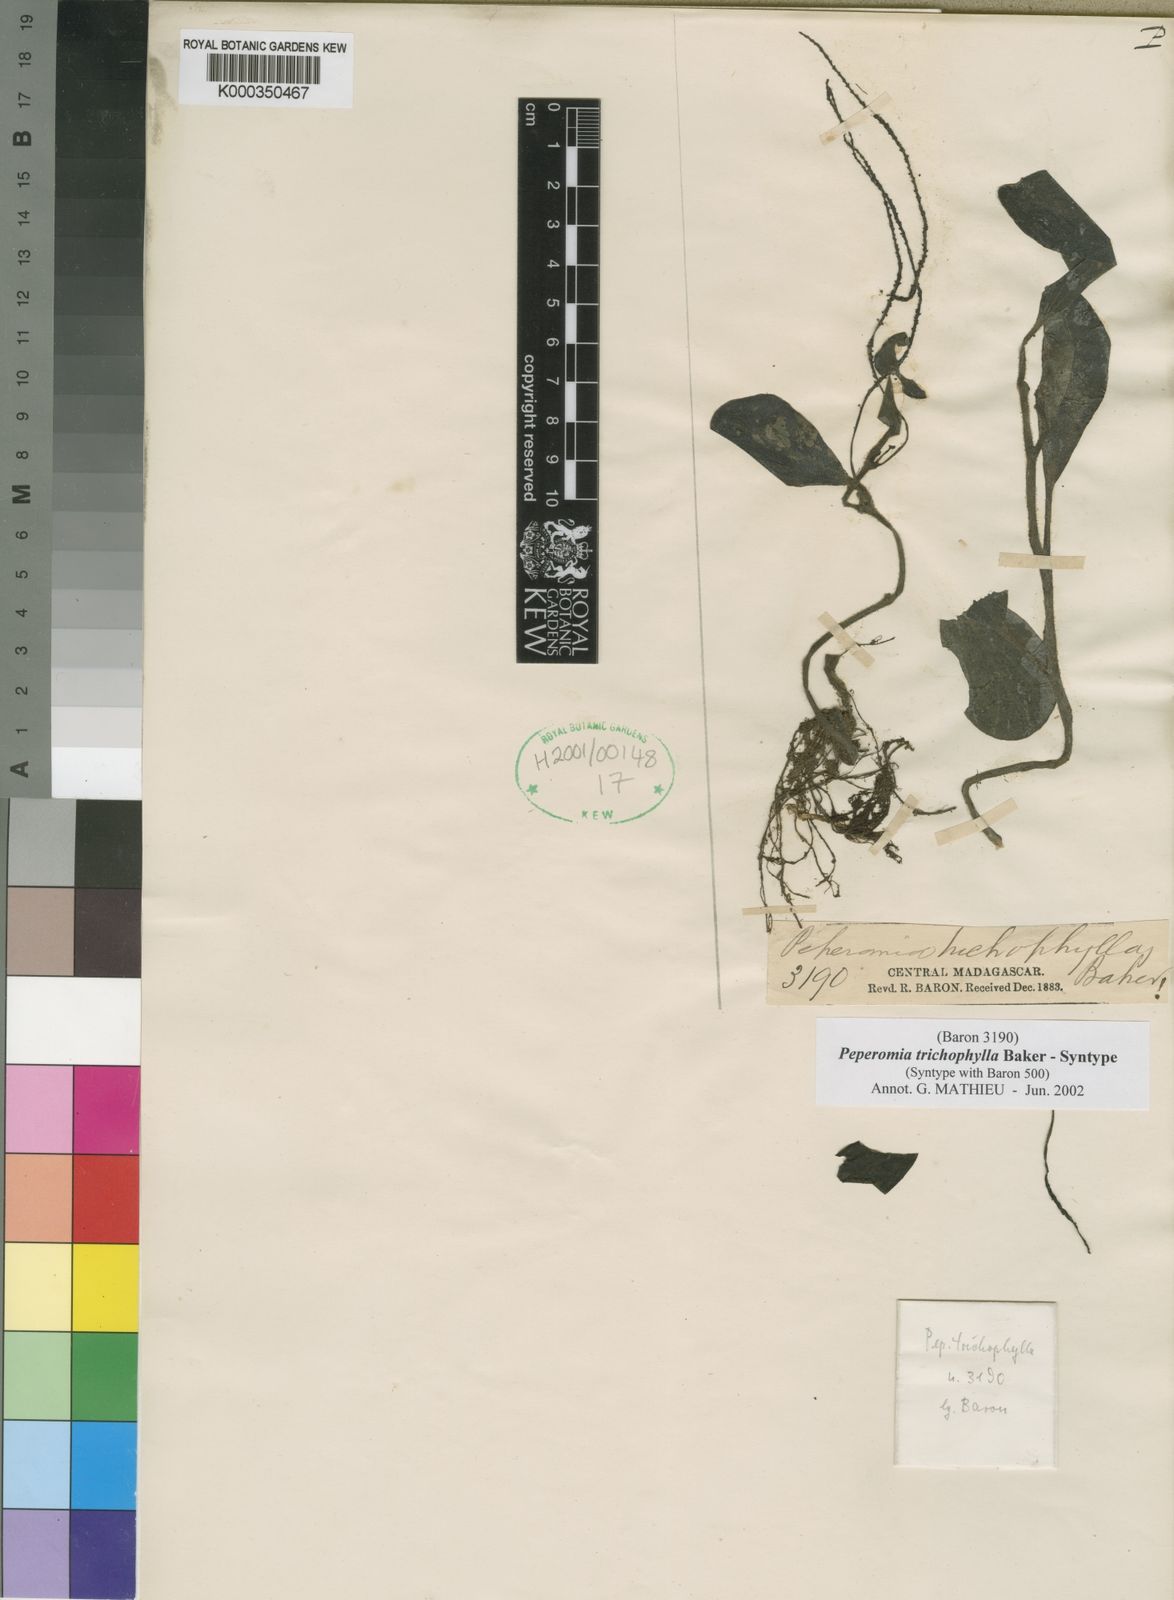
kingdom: Plantae
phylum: Tracheophyta
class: Magnoliopsida
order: Piperales
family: Piperaceae
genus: Peperomia
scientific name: Peperomia trichophylla
